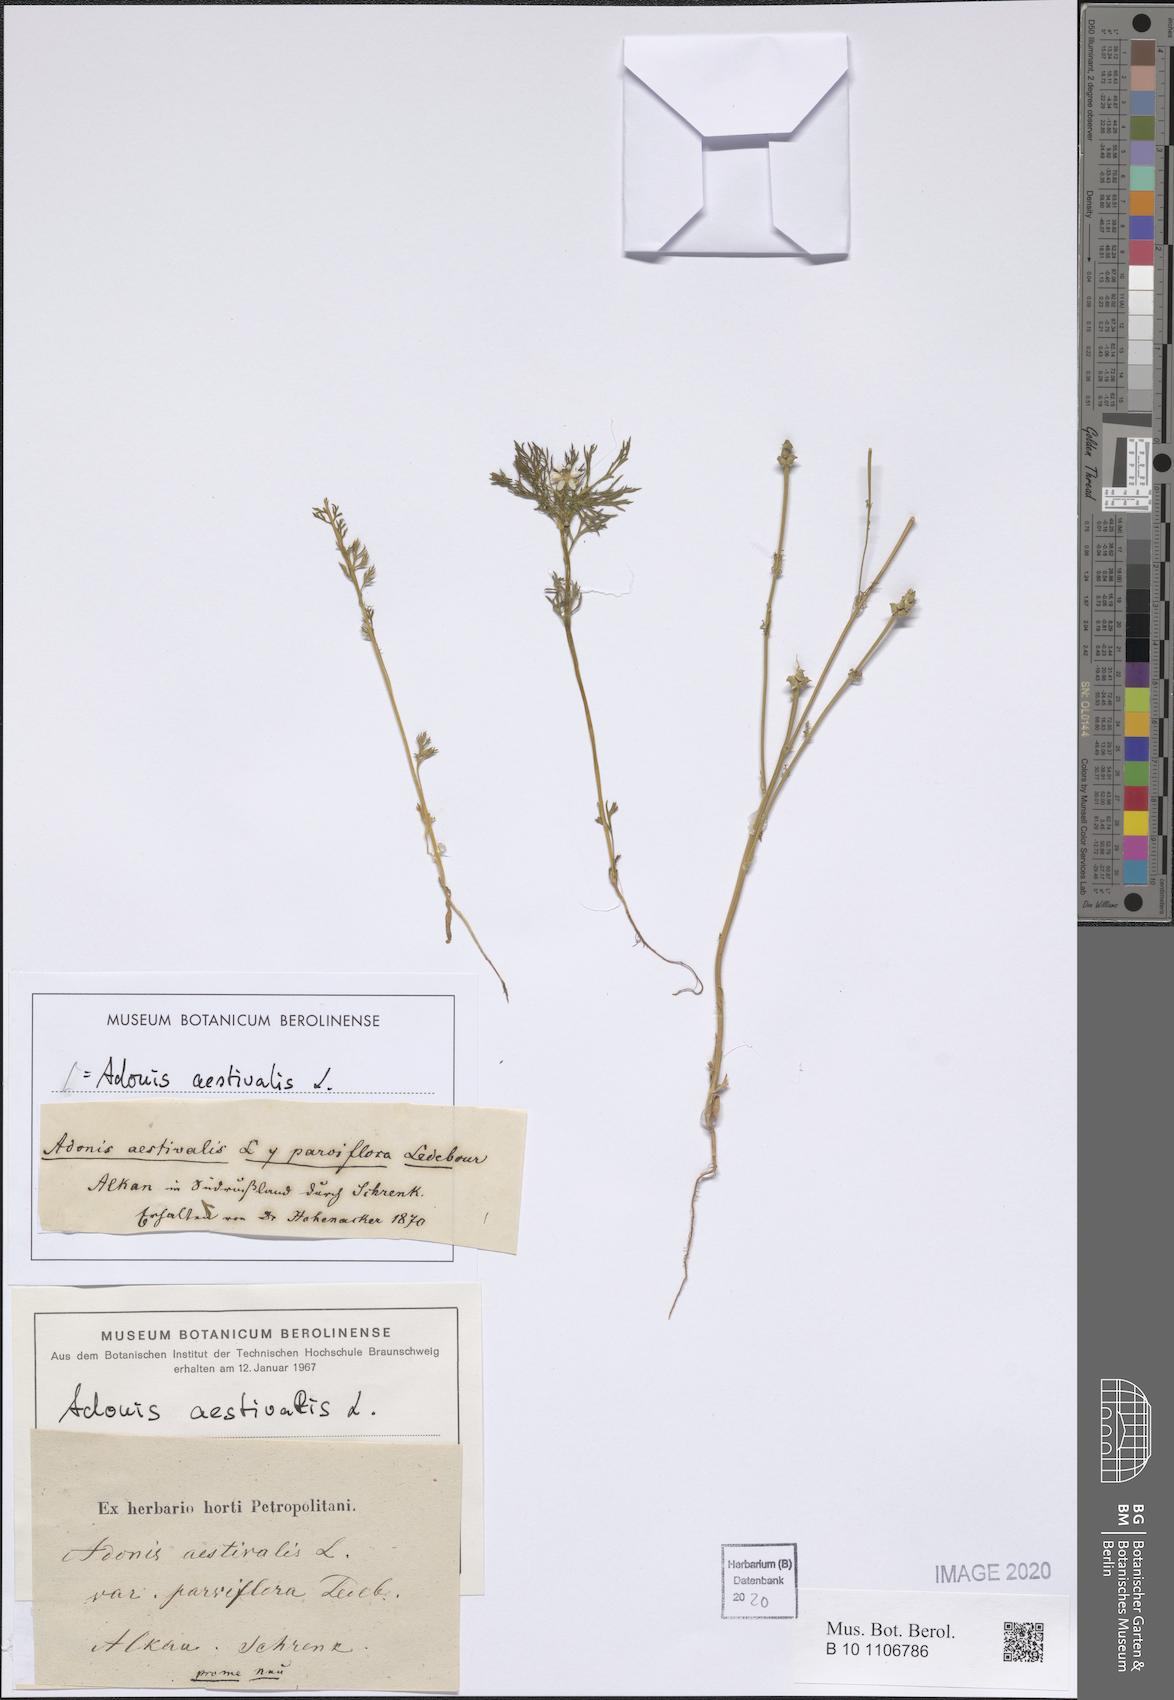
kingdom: Plantae
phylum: Tracheophyta
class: Magnoliopsida
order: Ranunculales
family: Ranunculaceae
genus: Adonis
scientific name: Adonis aestivalis
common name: Summer pheasant's-eye
